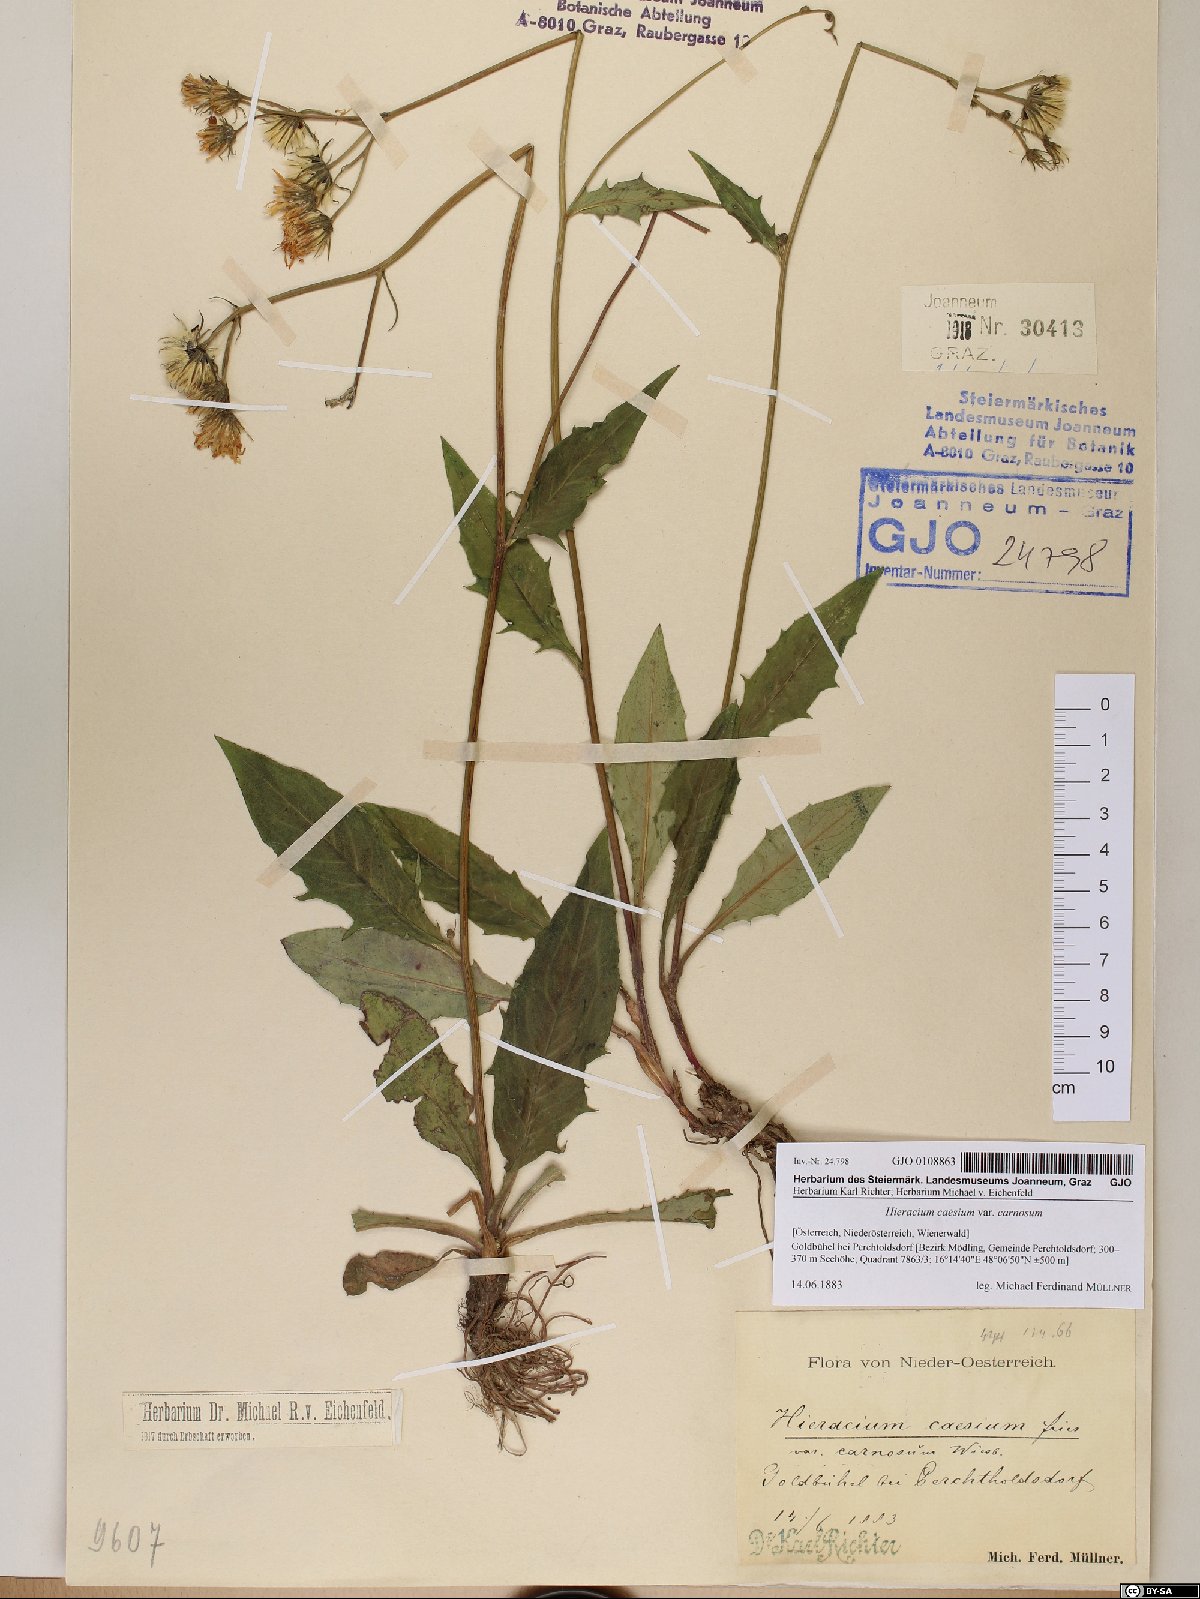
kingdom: Plantae
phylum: Tracheophyta
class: Magnoliopsida
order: Asterales
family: Asteraceae
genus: Hieracium
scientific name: Hieracium caesium
